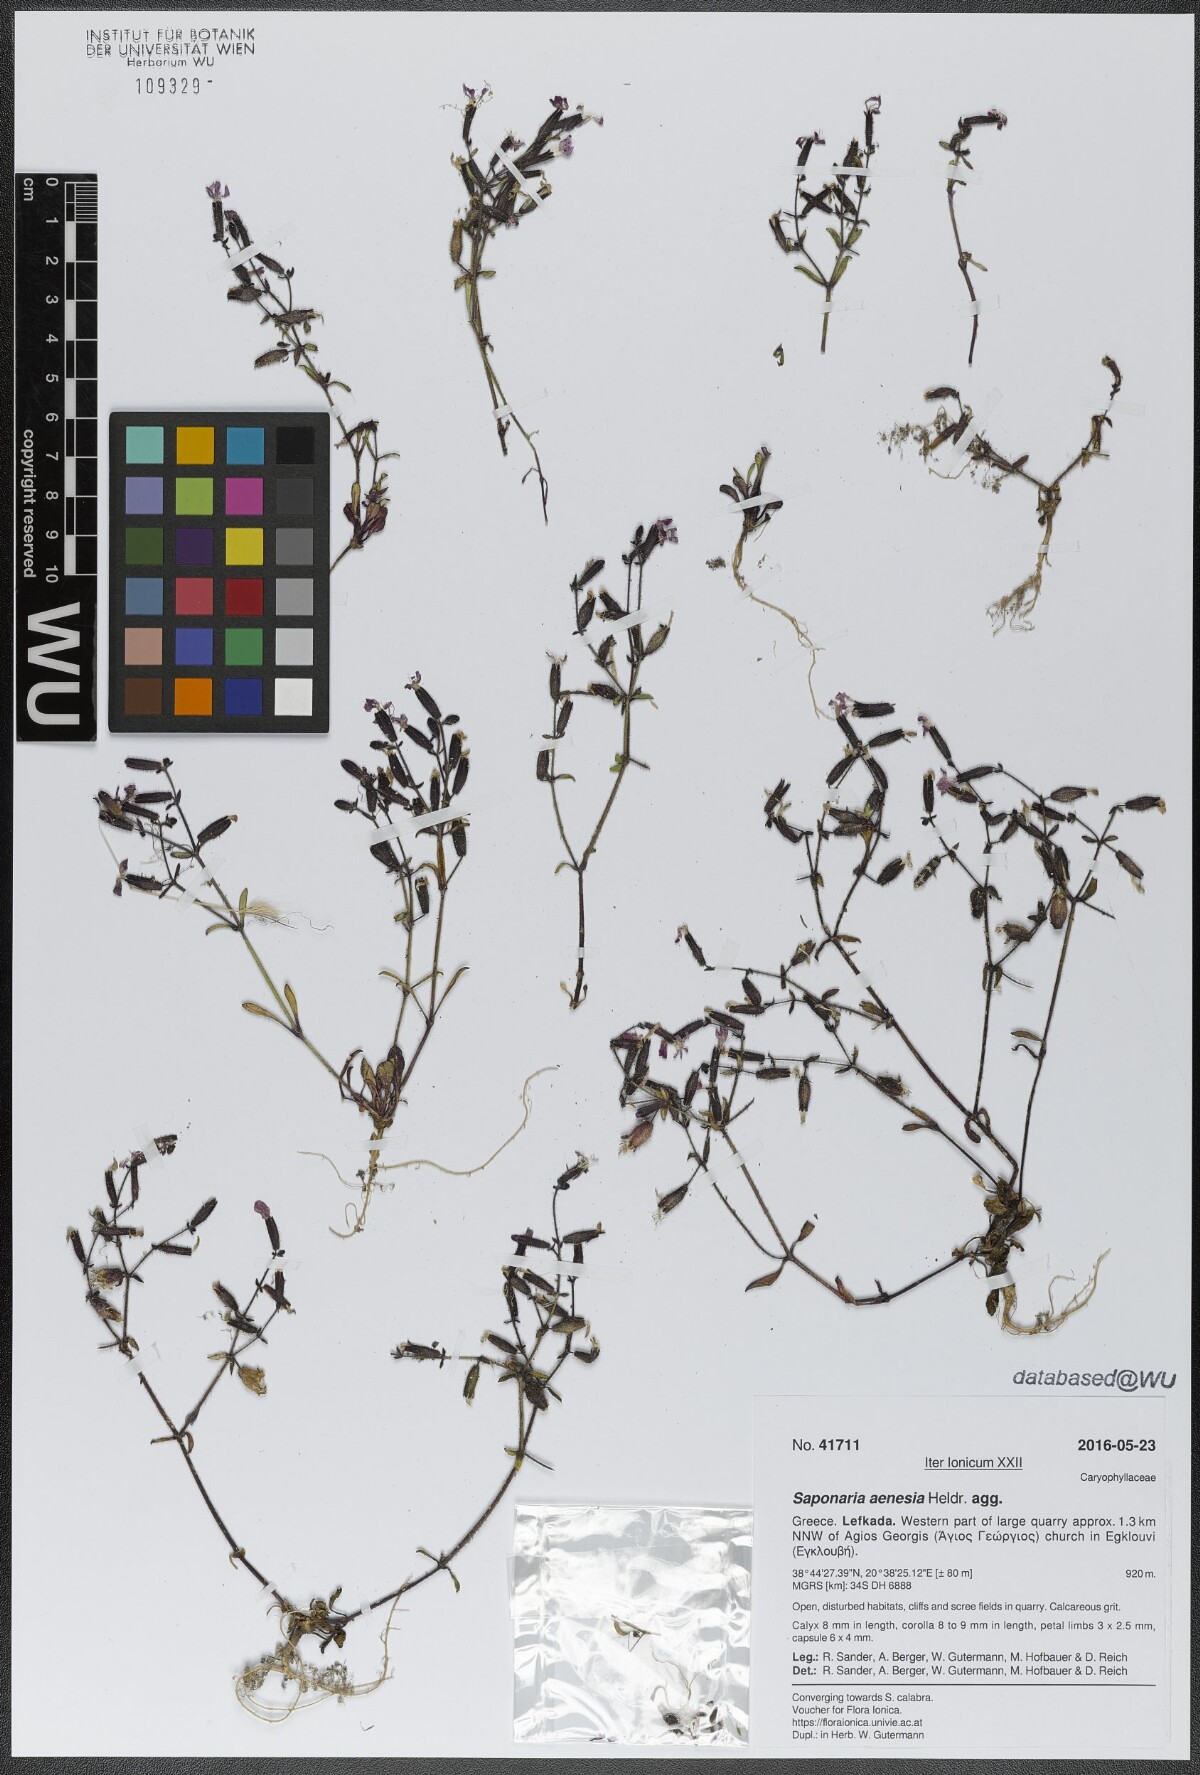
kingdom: Plantae
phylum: Tracheophyta
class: Magnoliopsida
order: Caryophyllales
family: Caryophyllaceae
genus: Saponaria
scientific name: Saponaria aenesia
